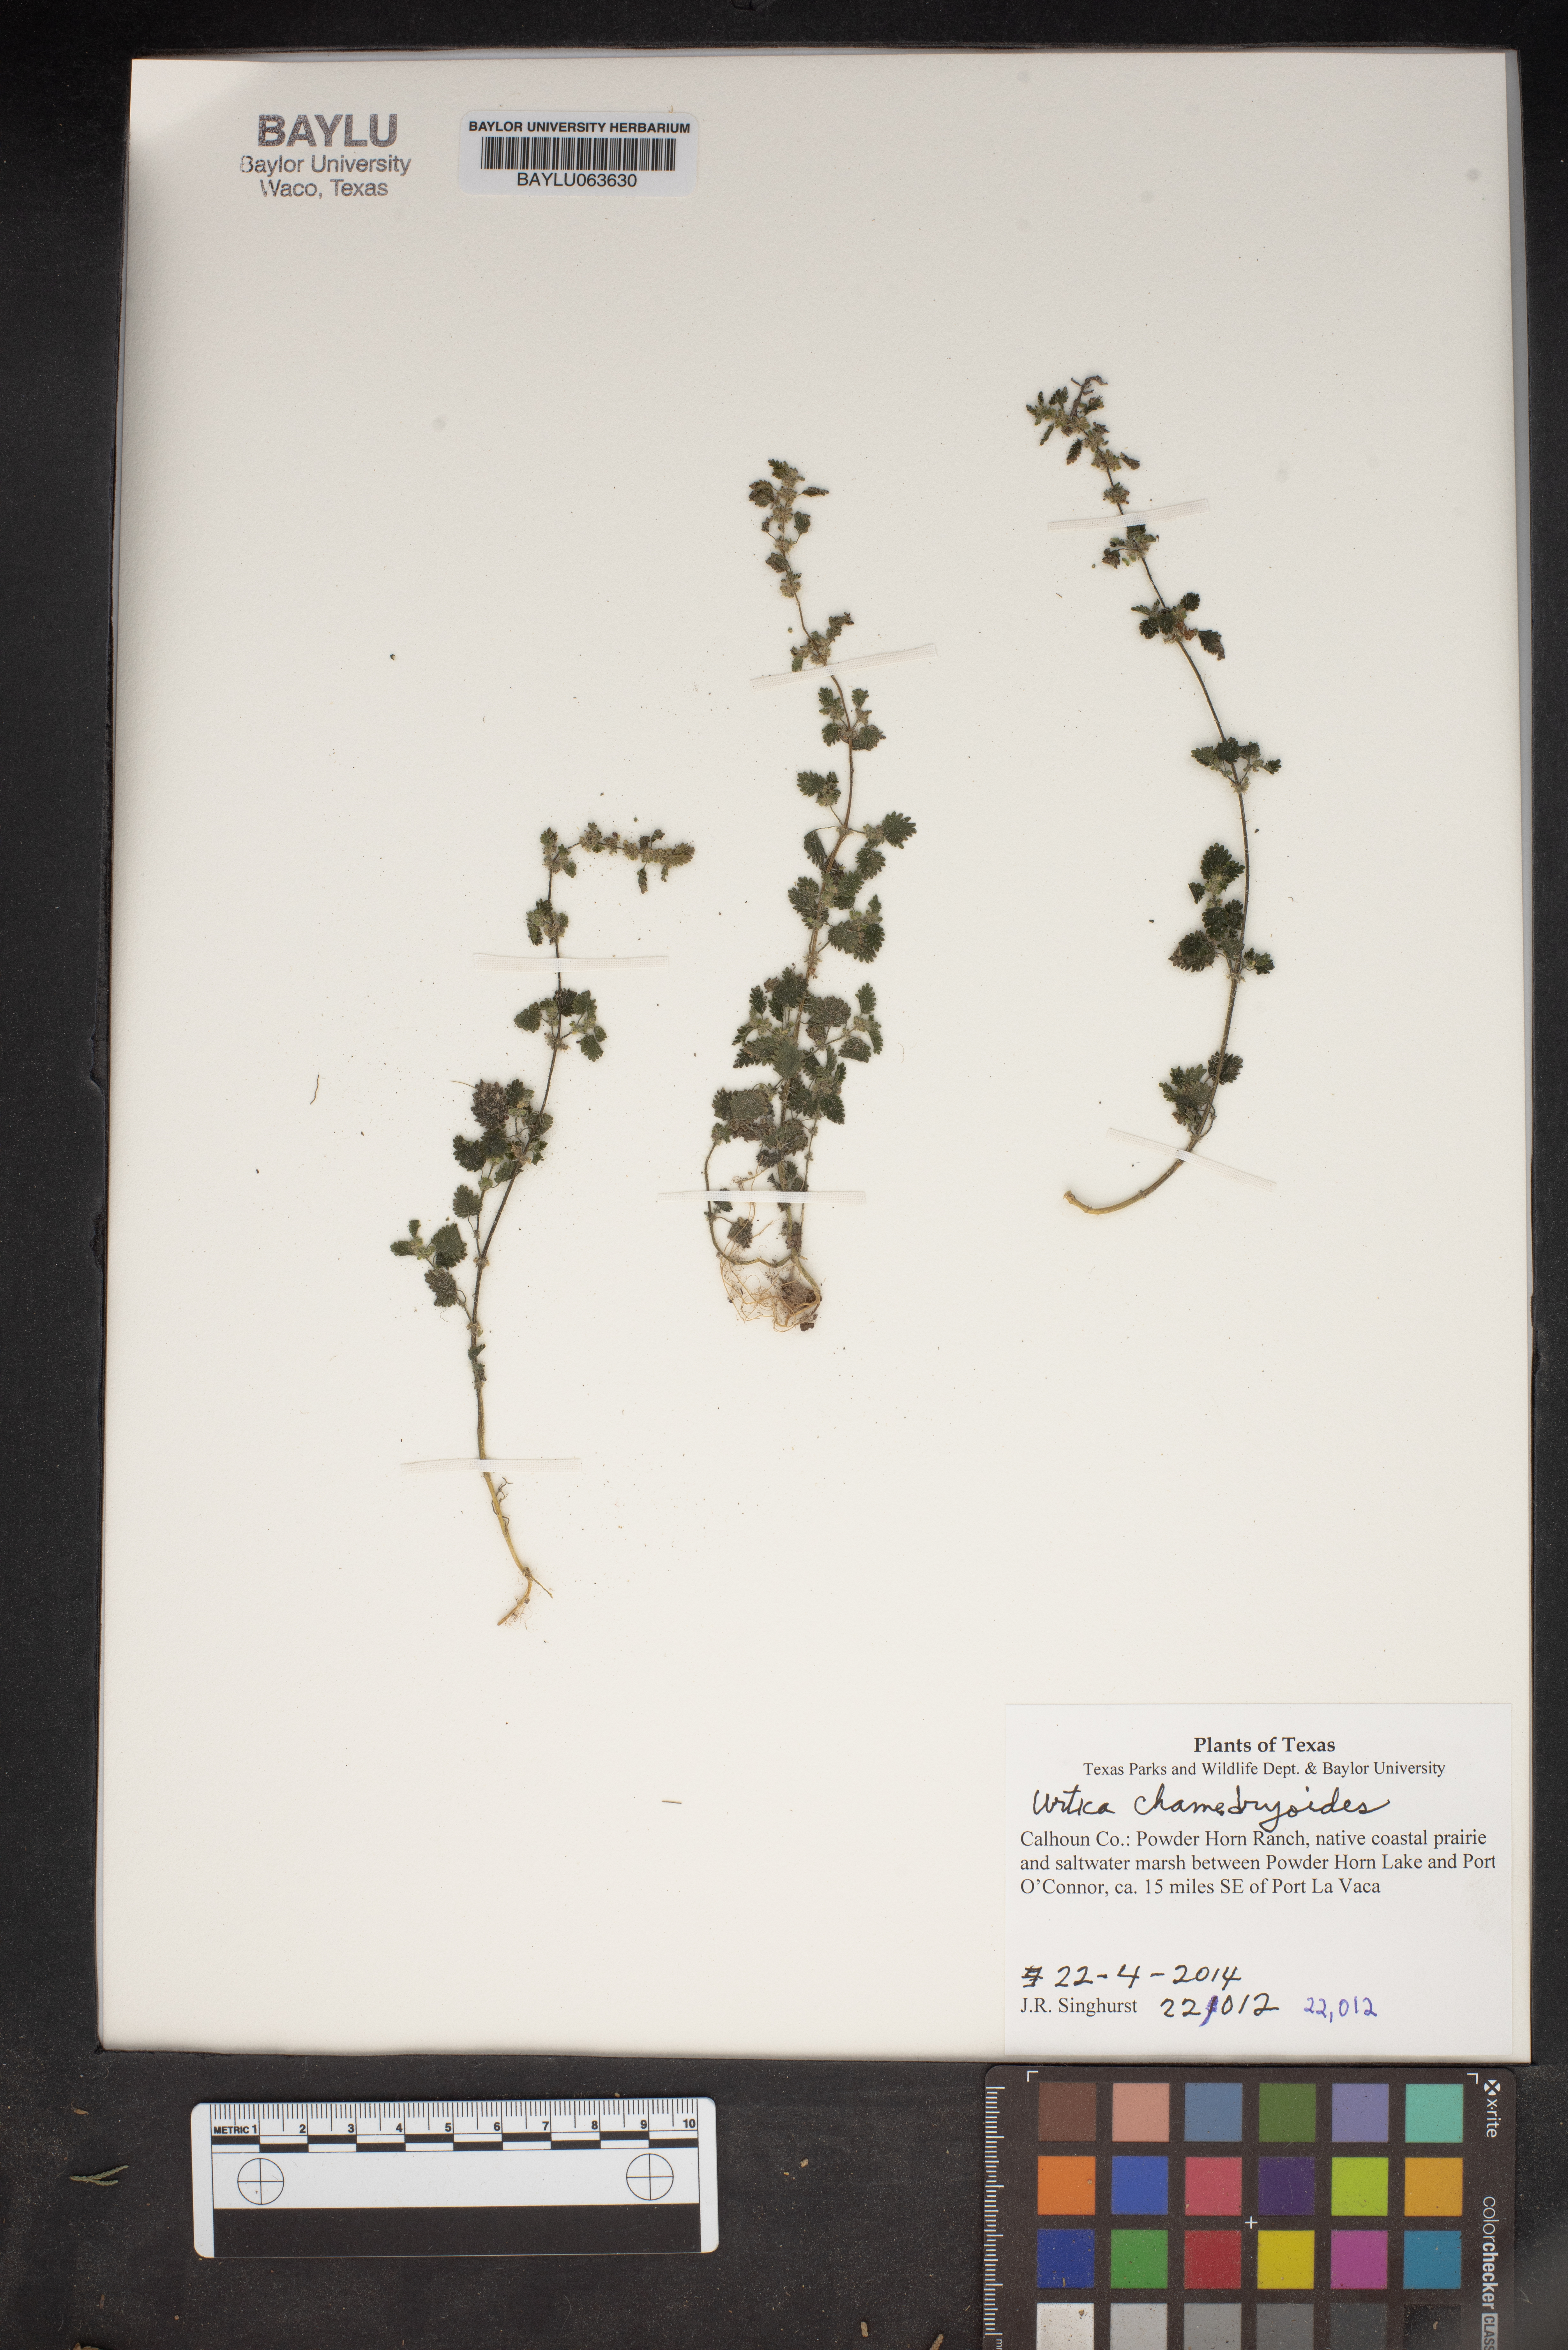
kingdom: Plantae
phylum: Tracheophyta
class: Magnoliopsida
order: Rosales
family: Urticaceae
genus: Urtica
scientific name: Urtica chamaedryoides
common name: Heart-leaf nettle
